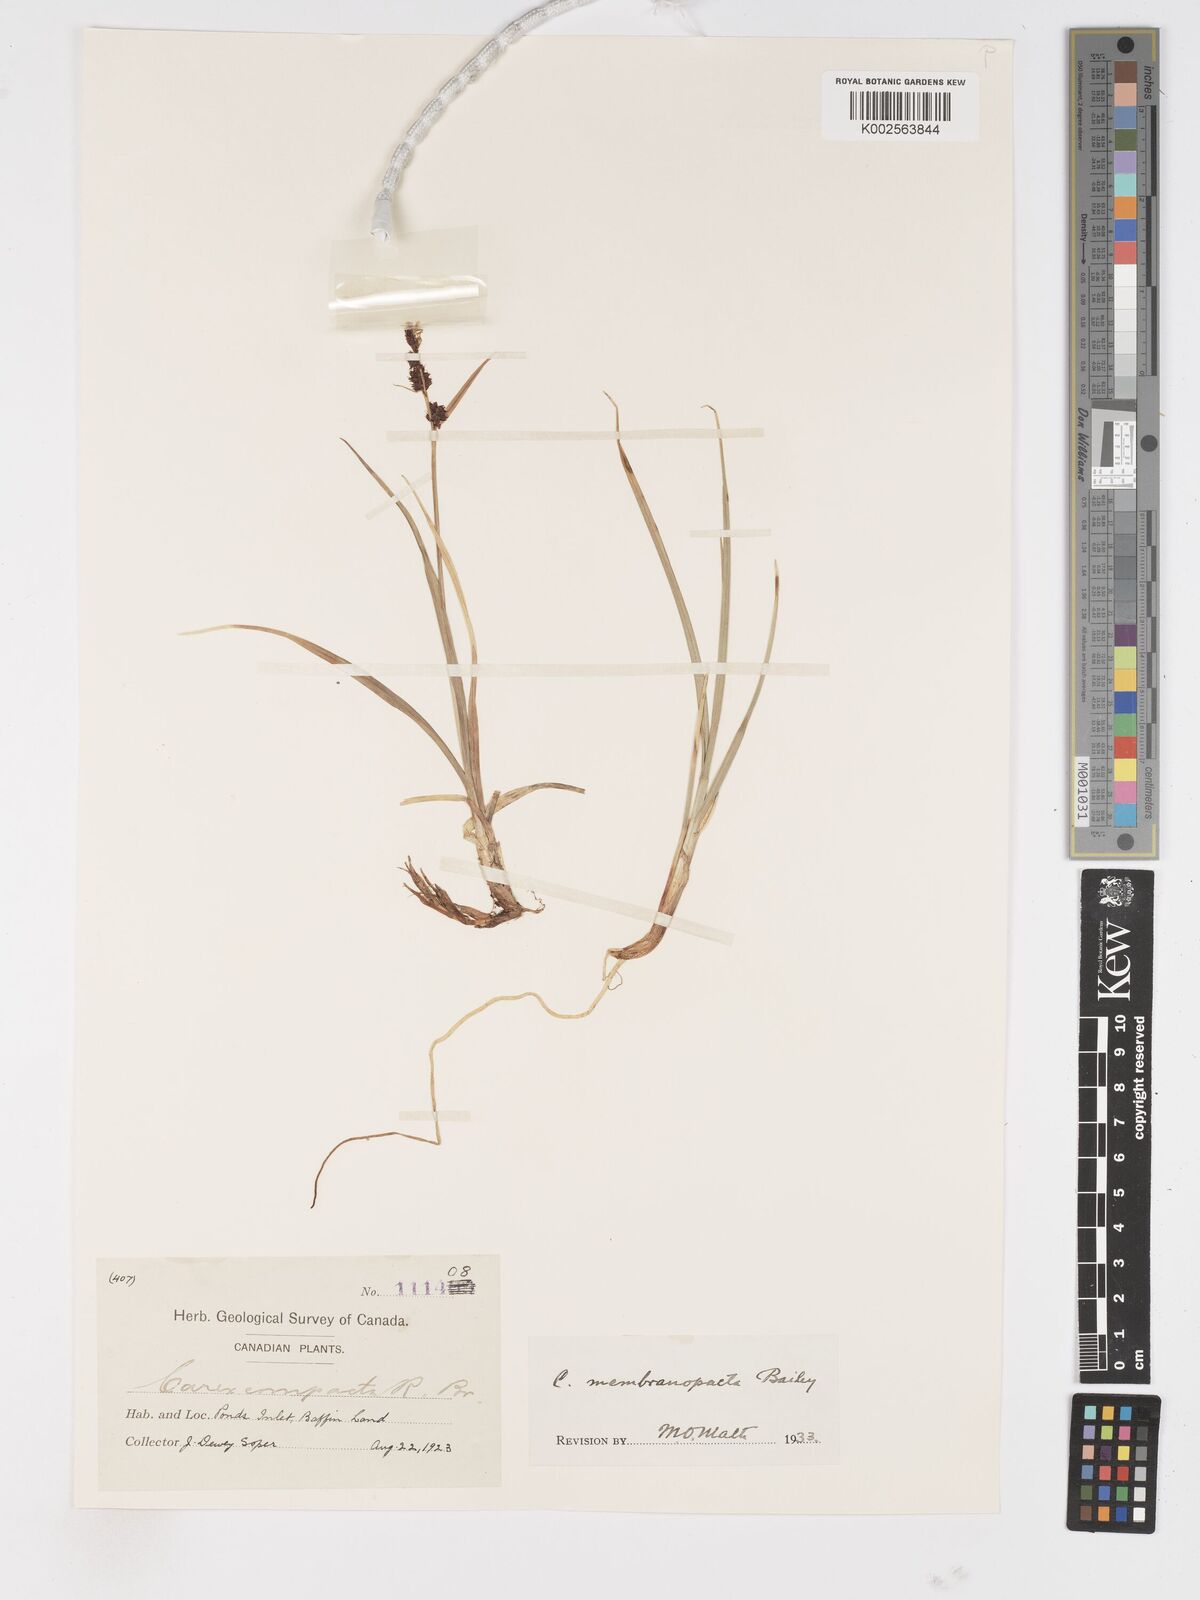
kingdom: Plantae
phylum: Tracheophyta
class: Liliopsida
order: Poales
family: Cyperaceae
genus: Carex
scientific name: Carex membranacea
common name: Fragile sedge
